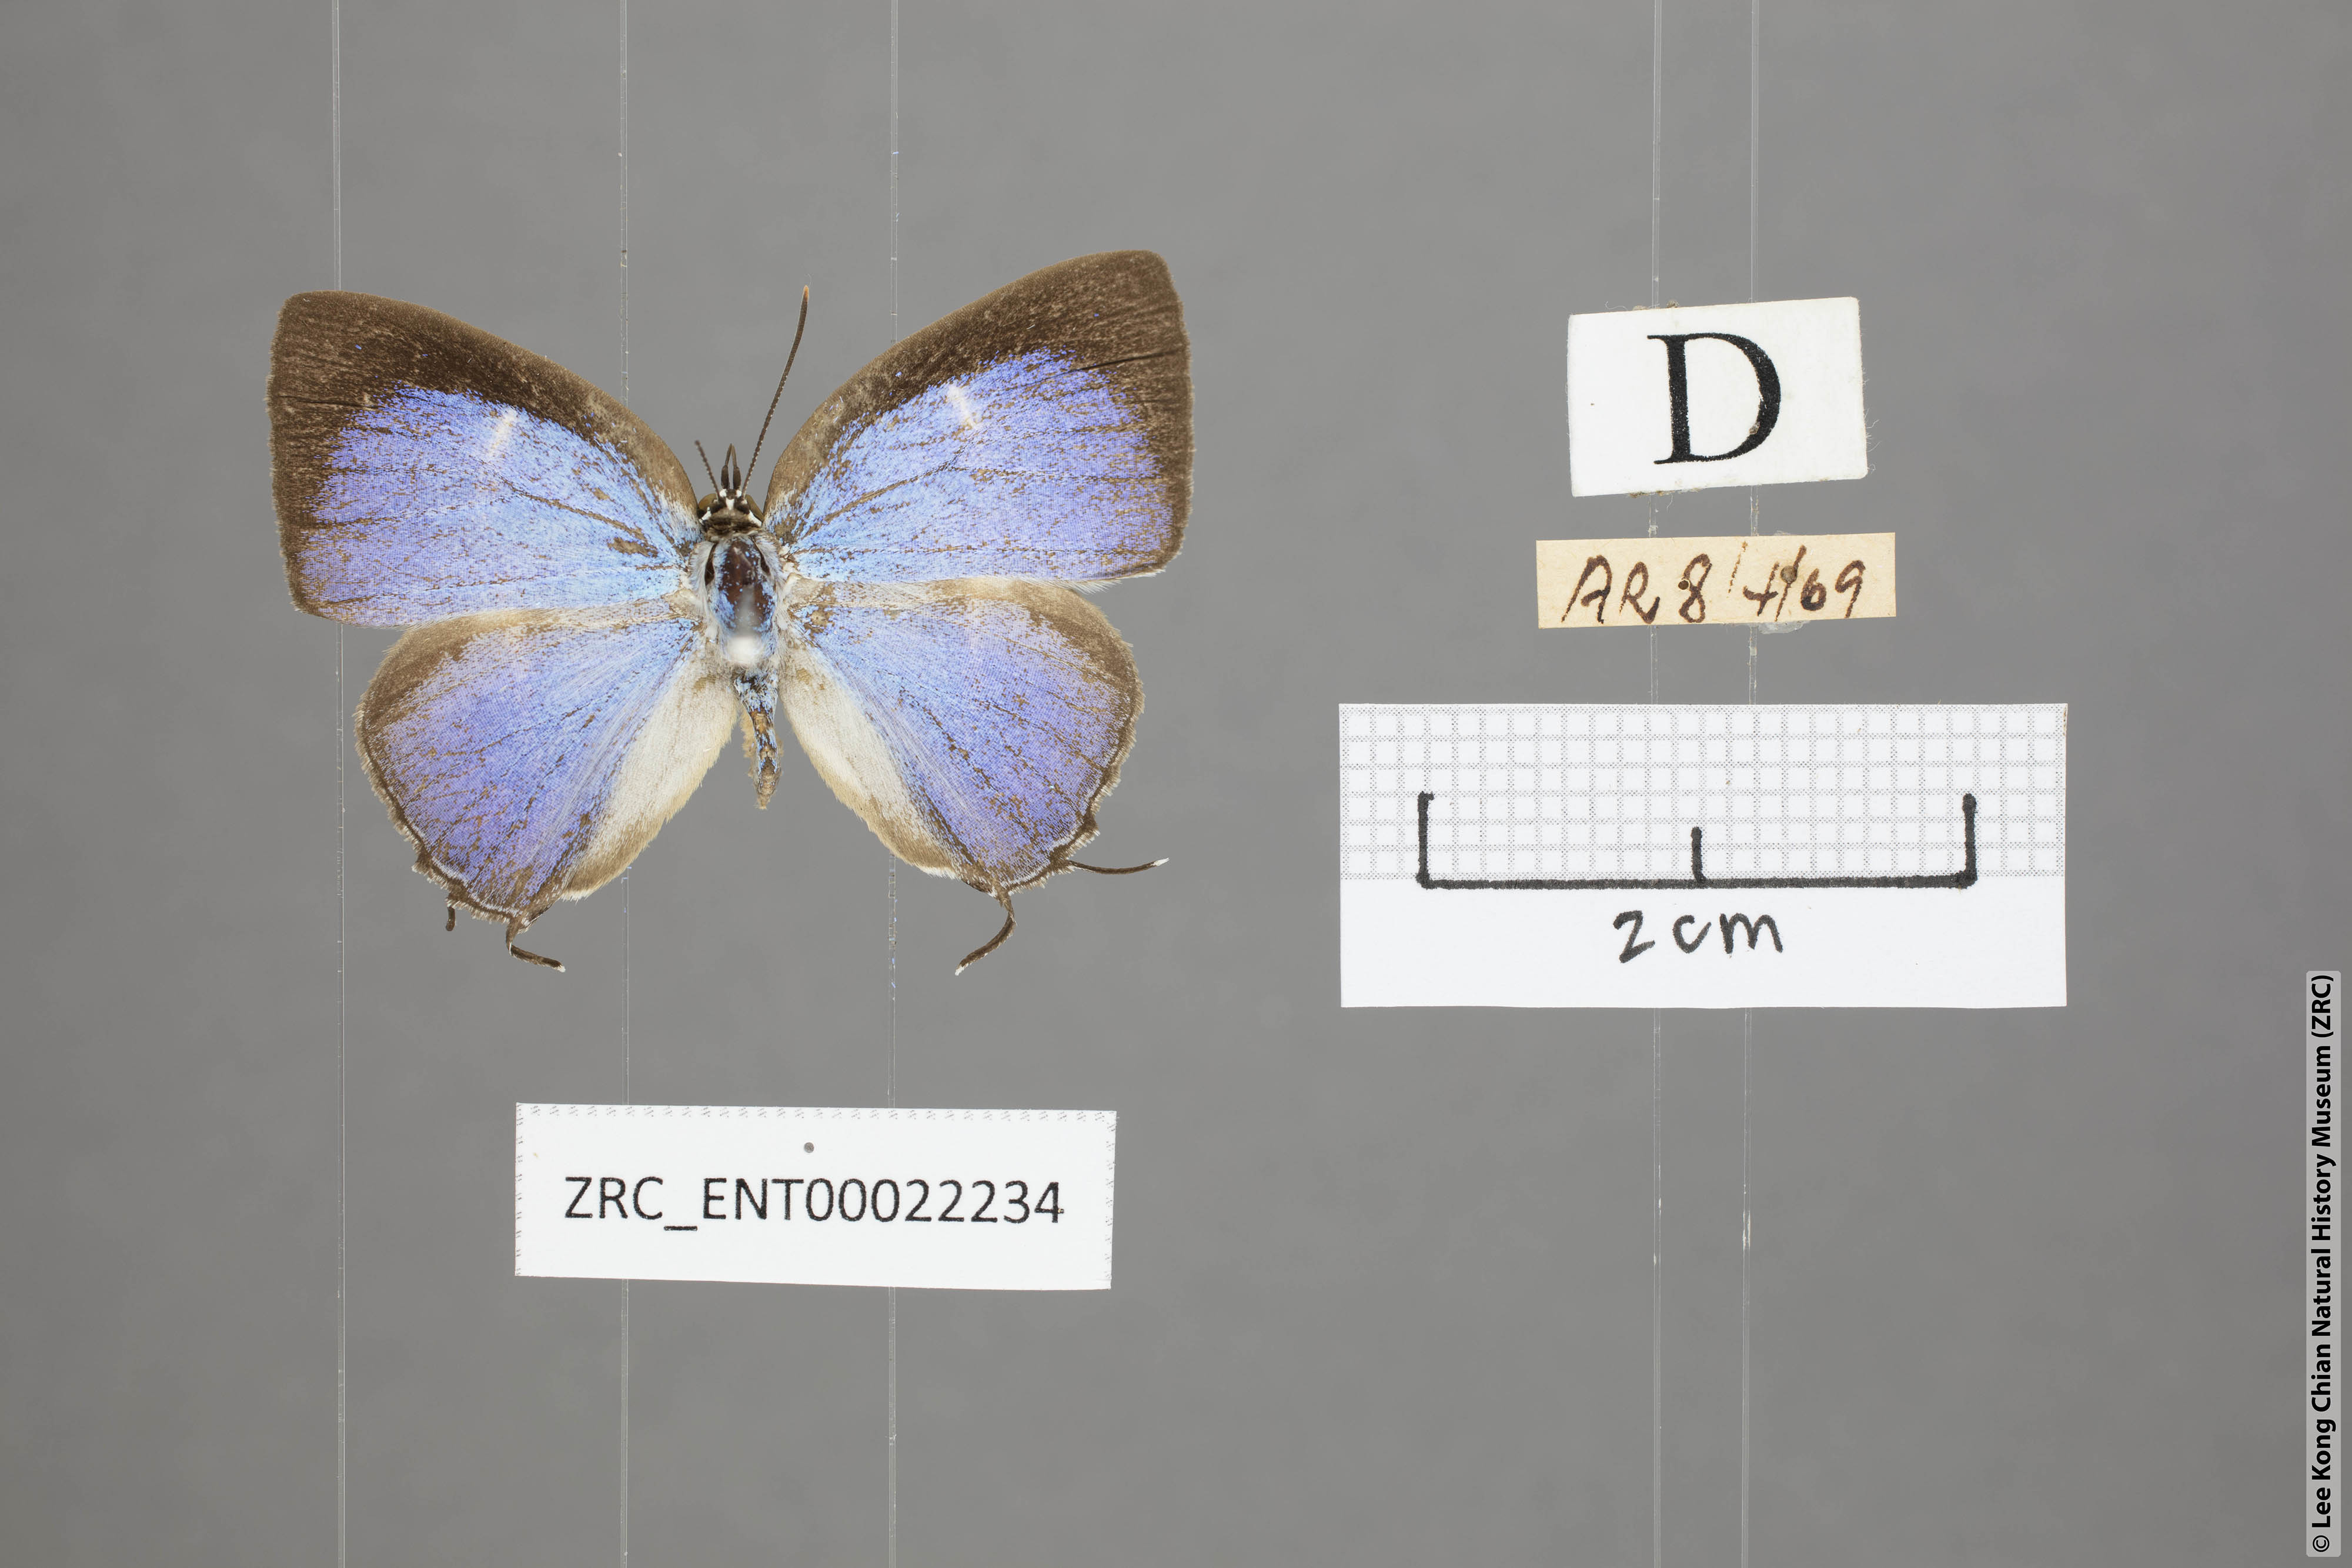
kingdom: Animalia
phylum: Arthropoda
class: Insecta
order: Lepidoptera
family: Lycaenidae
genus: Tajuria
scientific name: Tajuria
